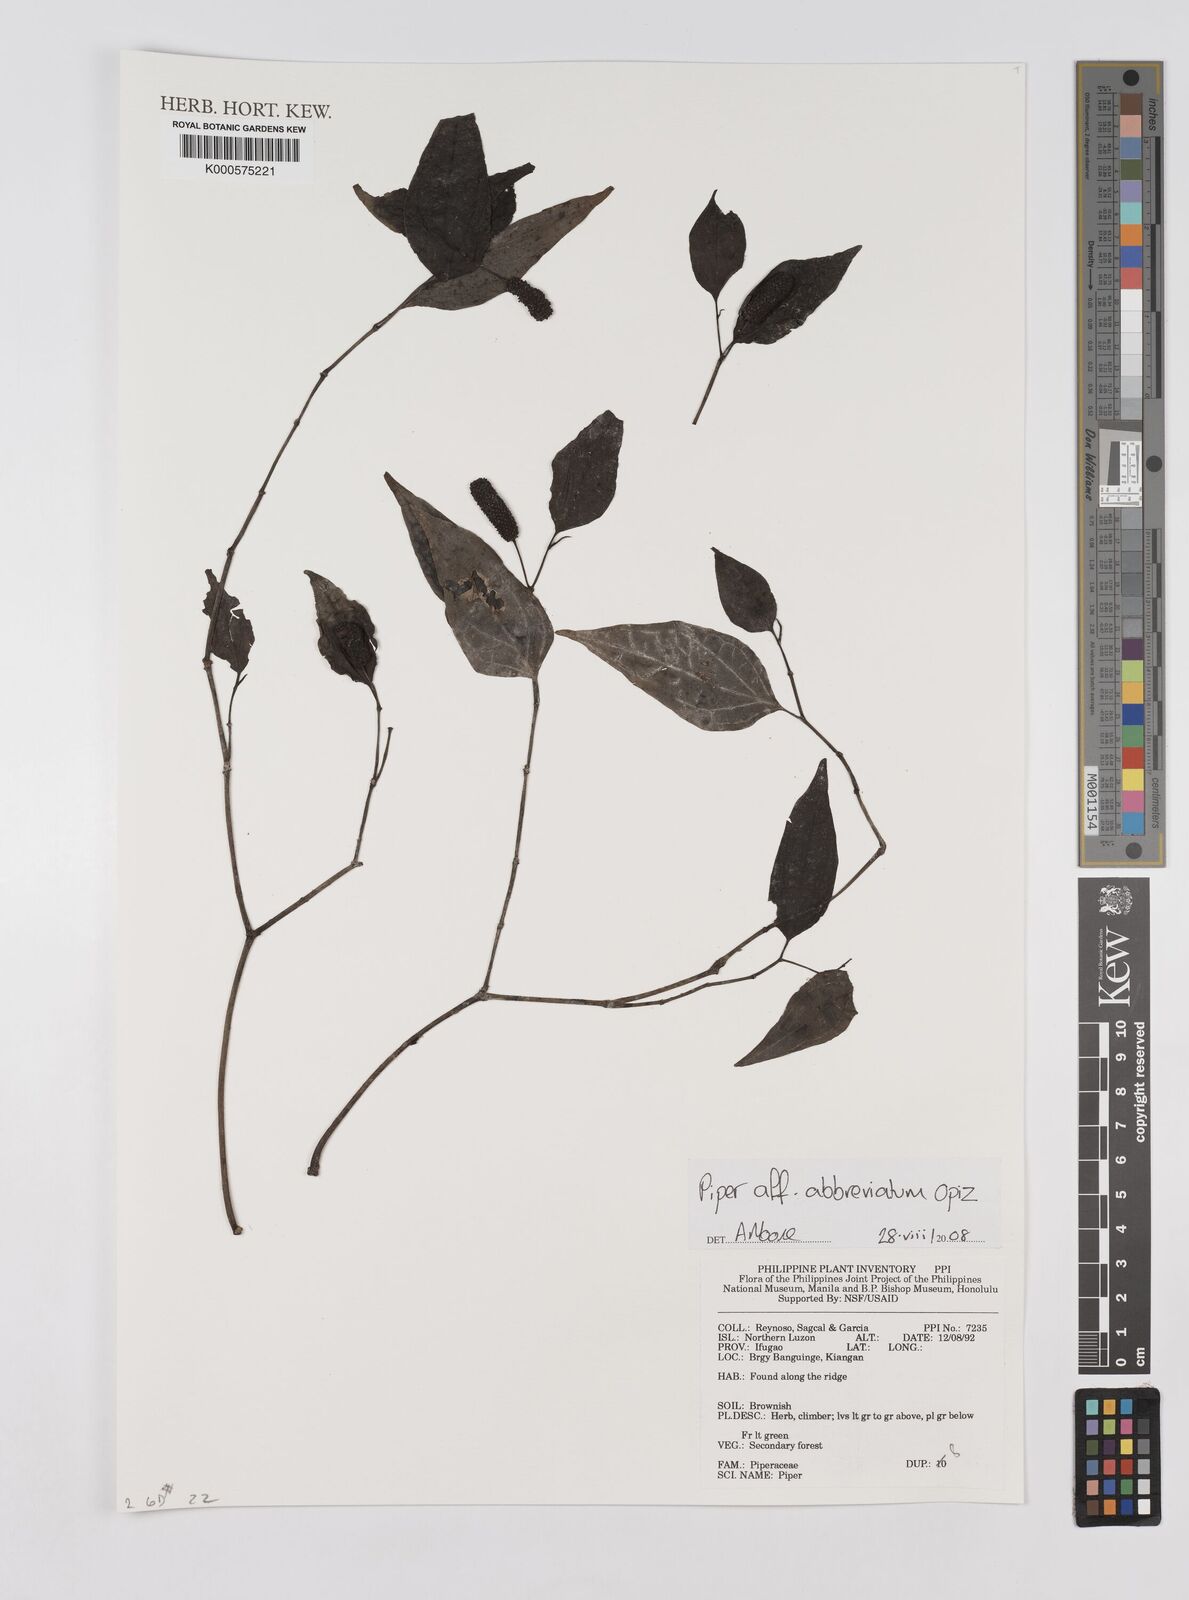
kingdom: Plantae
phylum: Tracheophyta
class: Magnoliopsida
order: Piperales
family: Piperaceae
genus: Piper
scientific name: Piper abbreviatum
